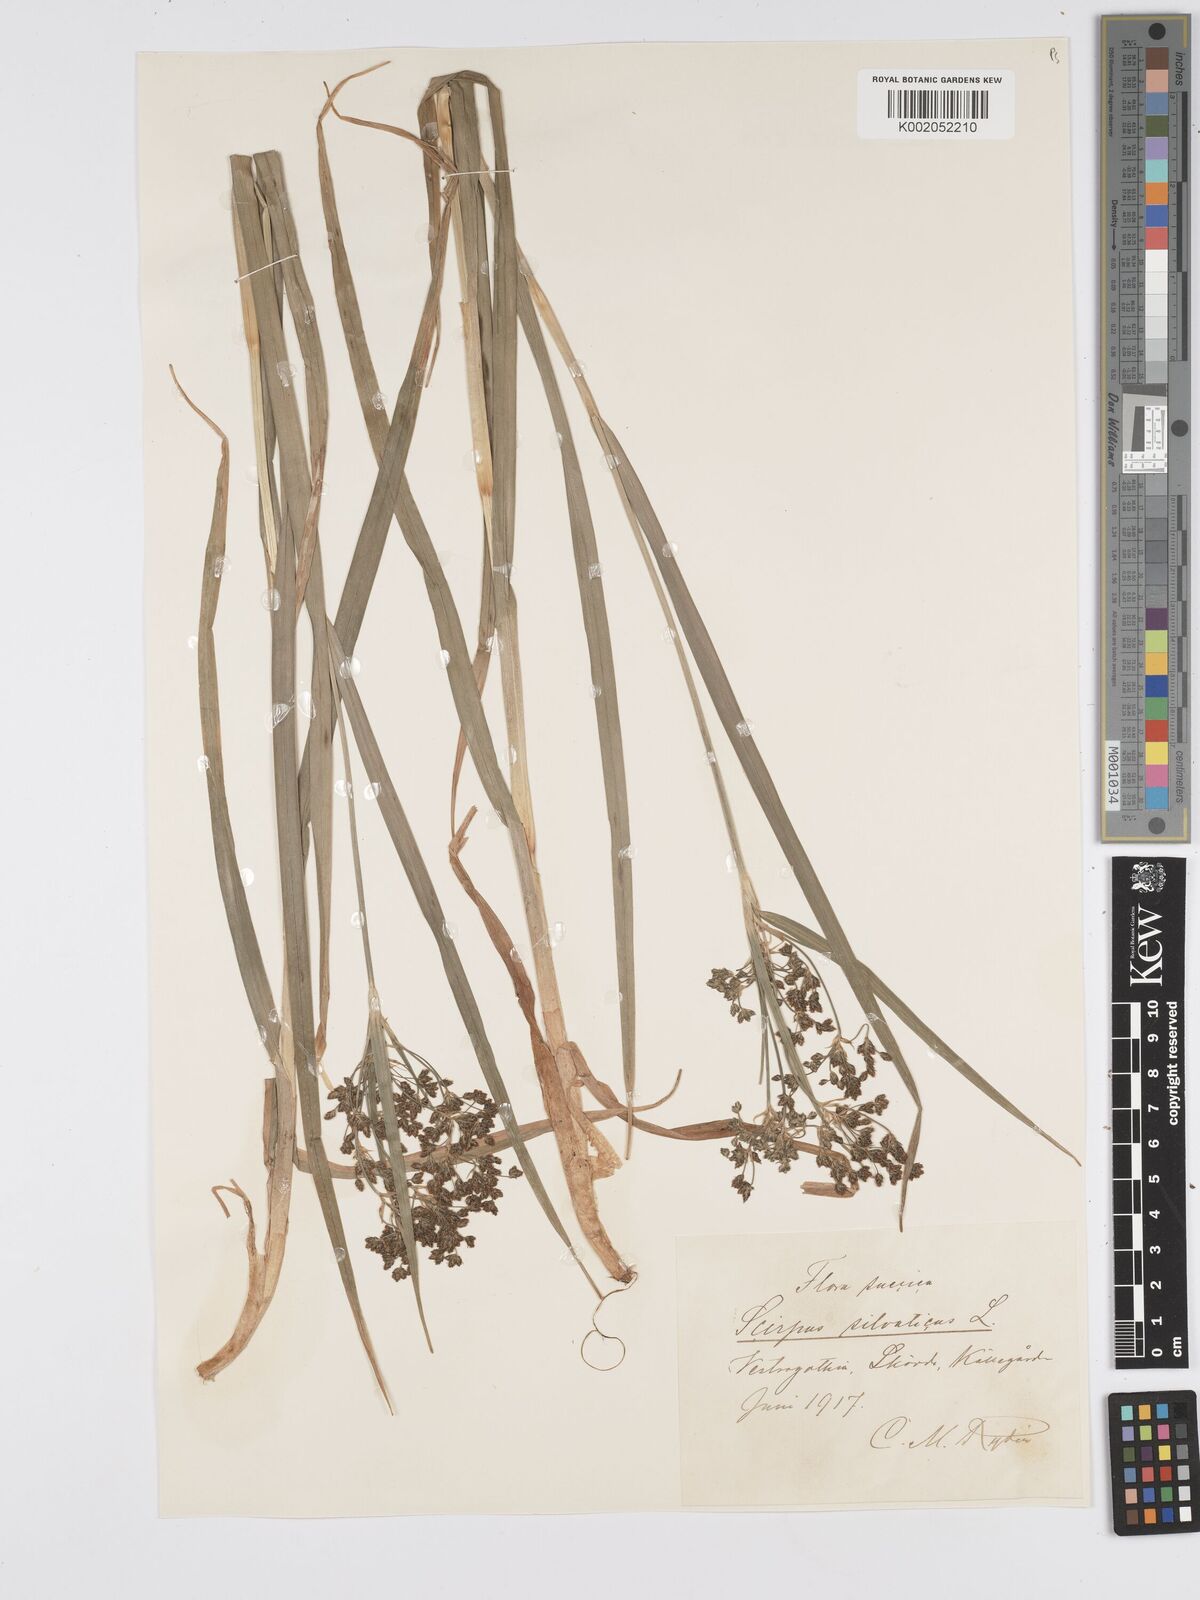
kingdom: Plantae
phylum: Tracheophyta
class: Liliopsida
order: Poales
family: Cyperaceae
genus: Scirpus
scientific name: Scirpus sylvaticus
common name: Wood club-rush
